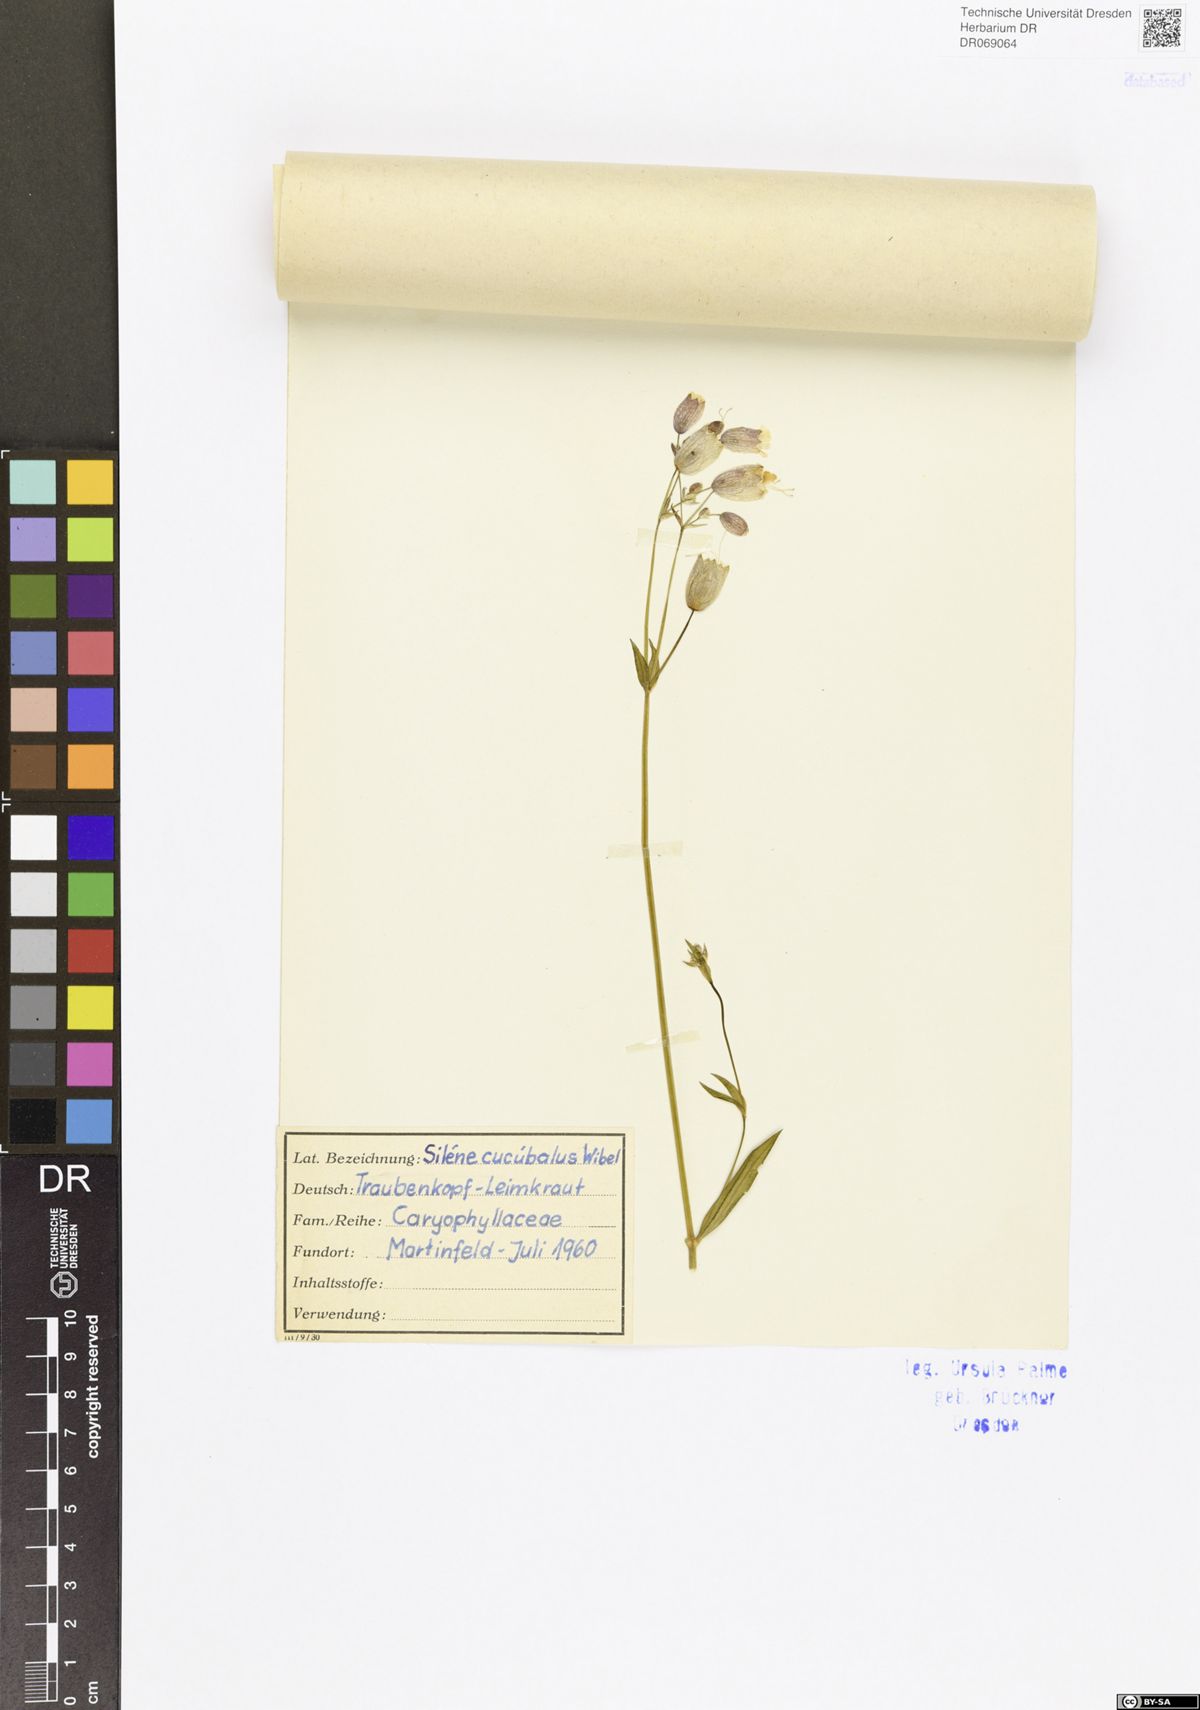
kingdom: Plantae
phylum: Tracheophyta
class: Magnoliopsida
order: Caryophyllales
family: Caryophyllaceae
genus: Silene
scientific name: Silene vulgaris
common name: Bladder campion
